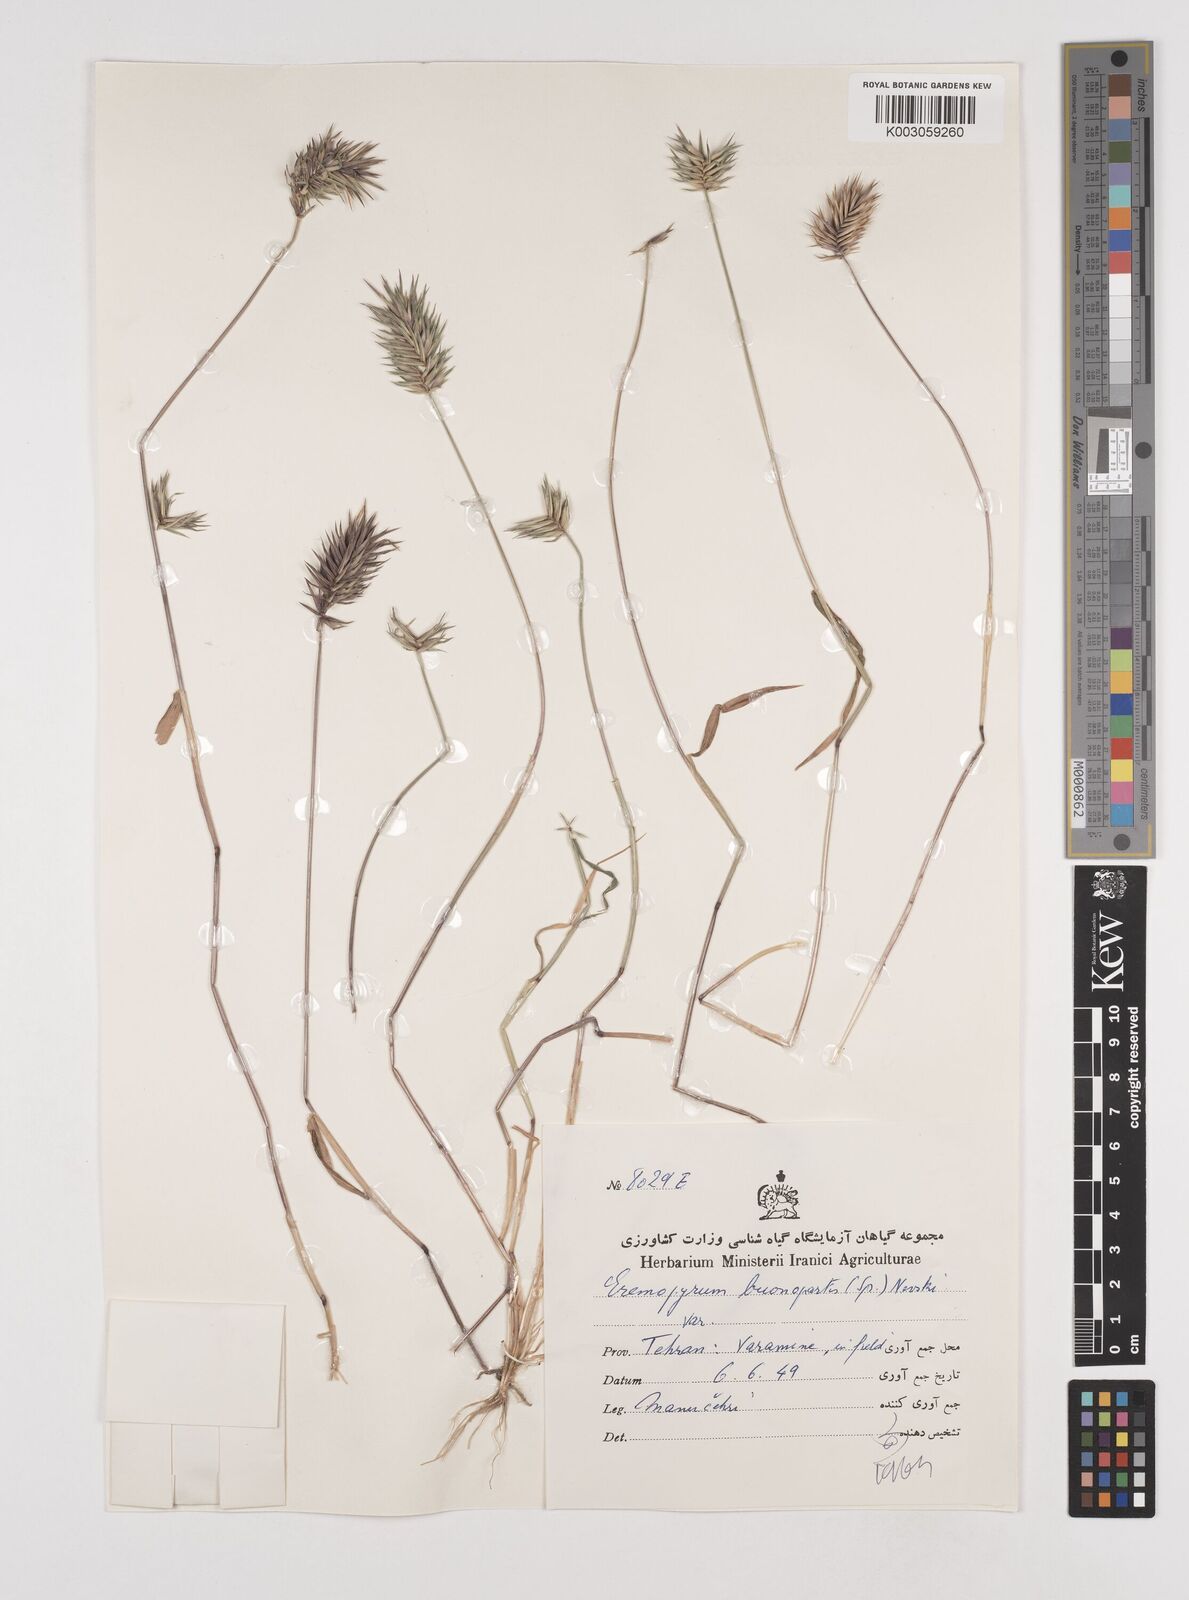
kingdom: Plantae
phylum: Tracheophyta
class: Liliopsida
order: Poales
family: Poaceae
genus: Eremopyrum
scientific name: Eremopyrum bonaepartis
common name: Tapertip false wheatgrass
